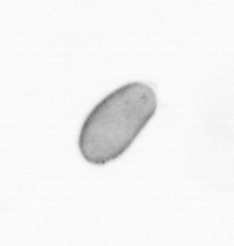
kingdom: Chromista
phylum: Ochrophyta
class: Bacillariophyceae
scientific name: Bacillariophyceae
